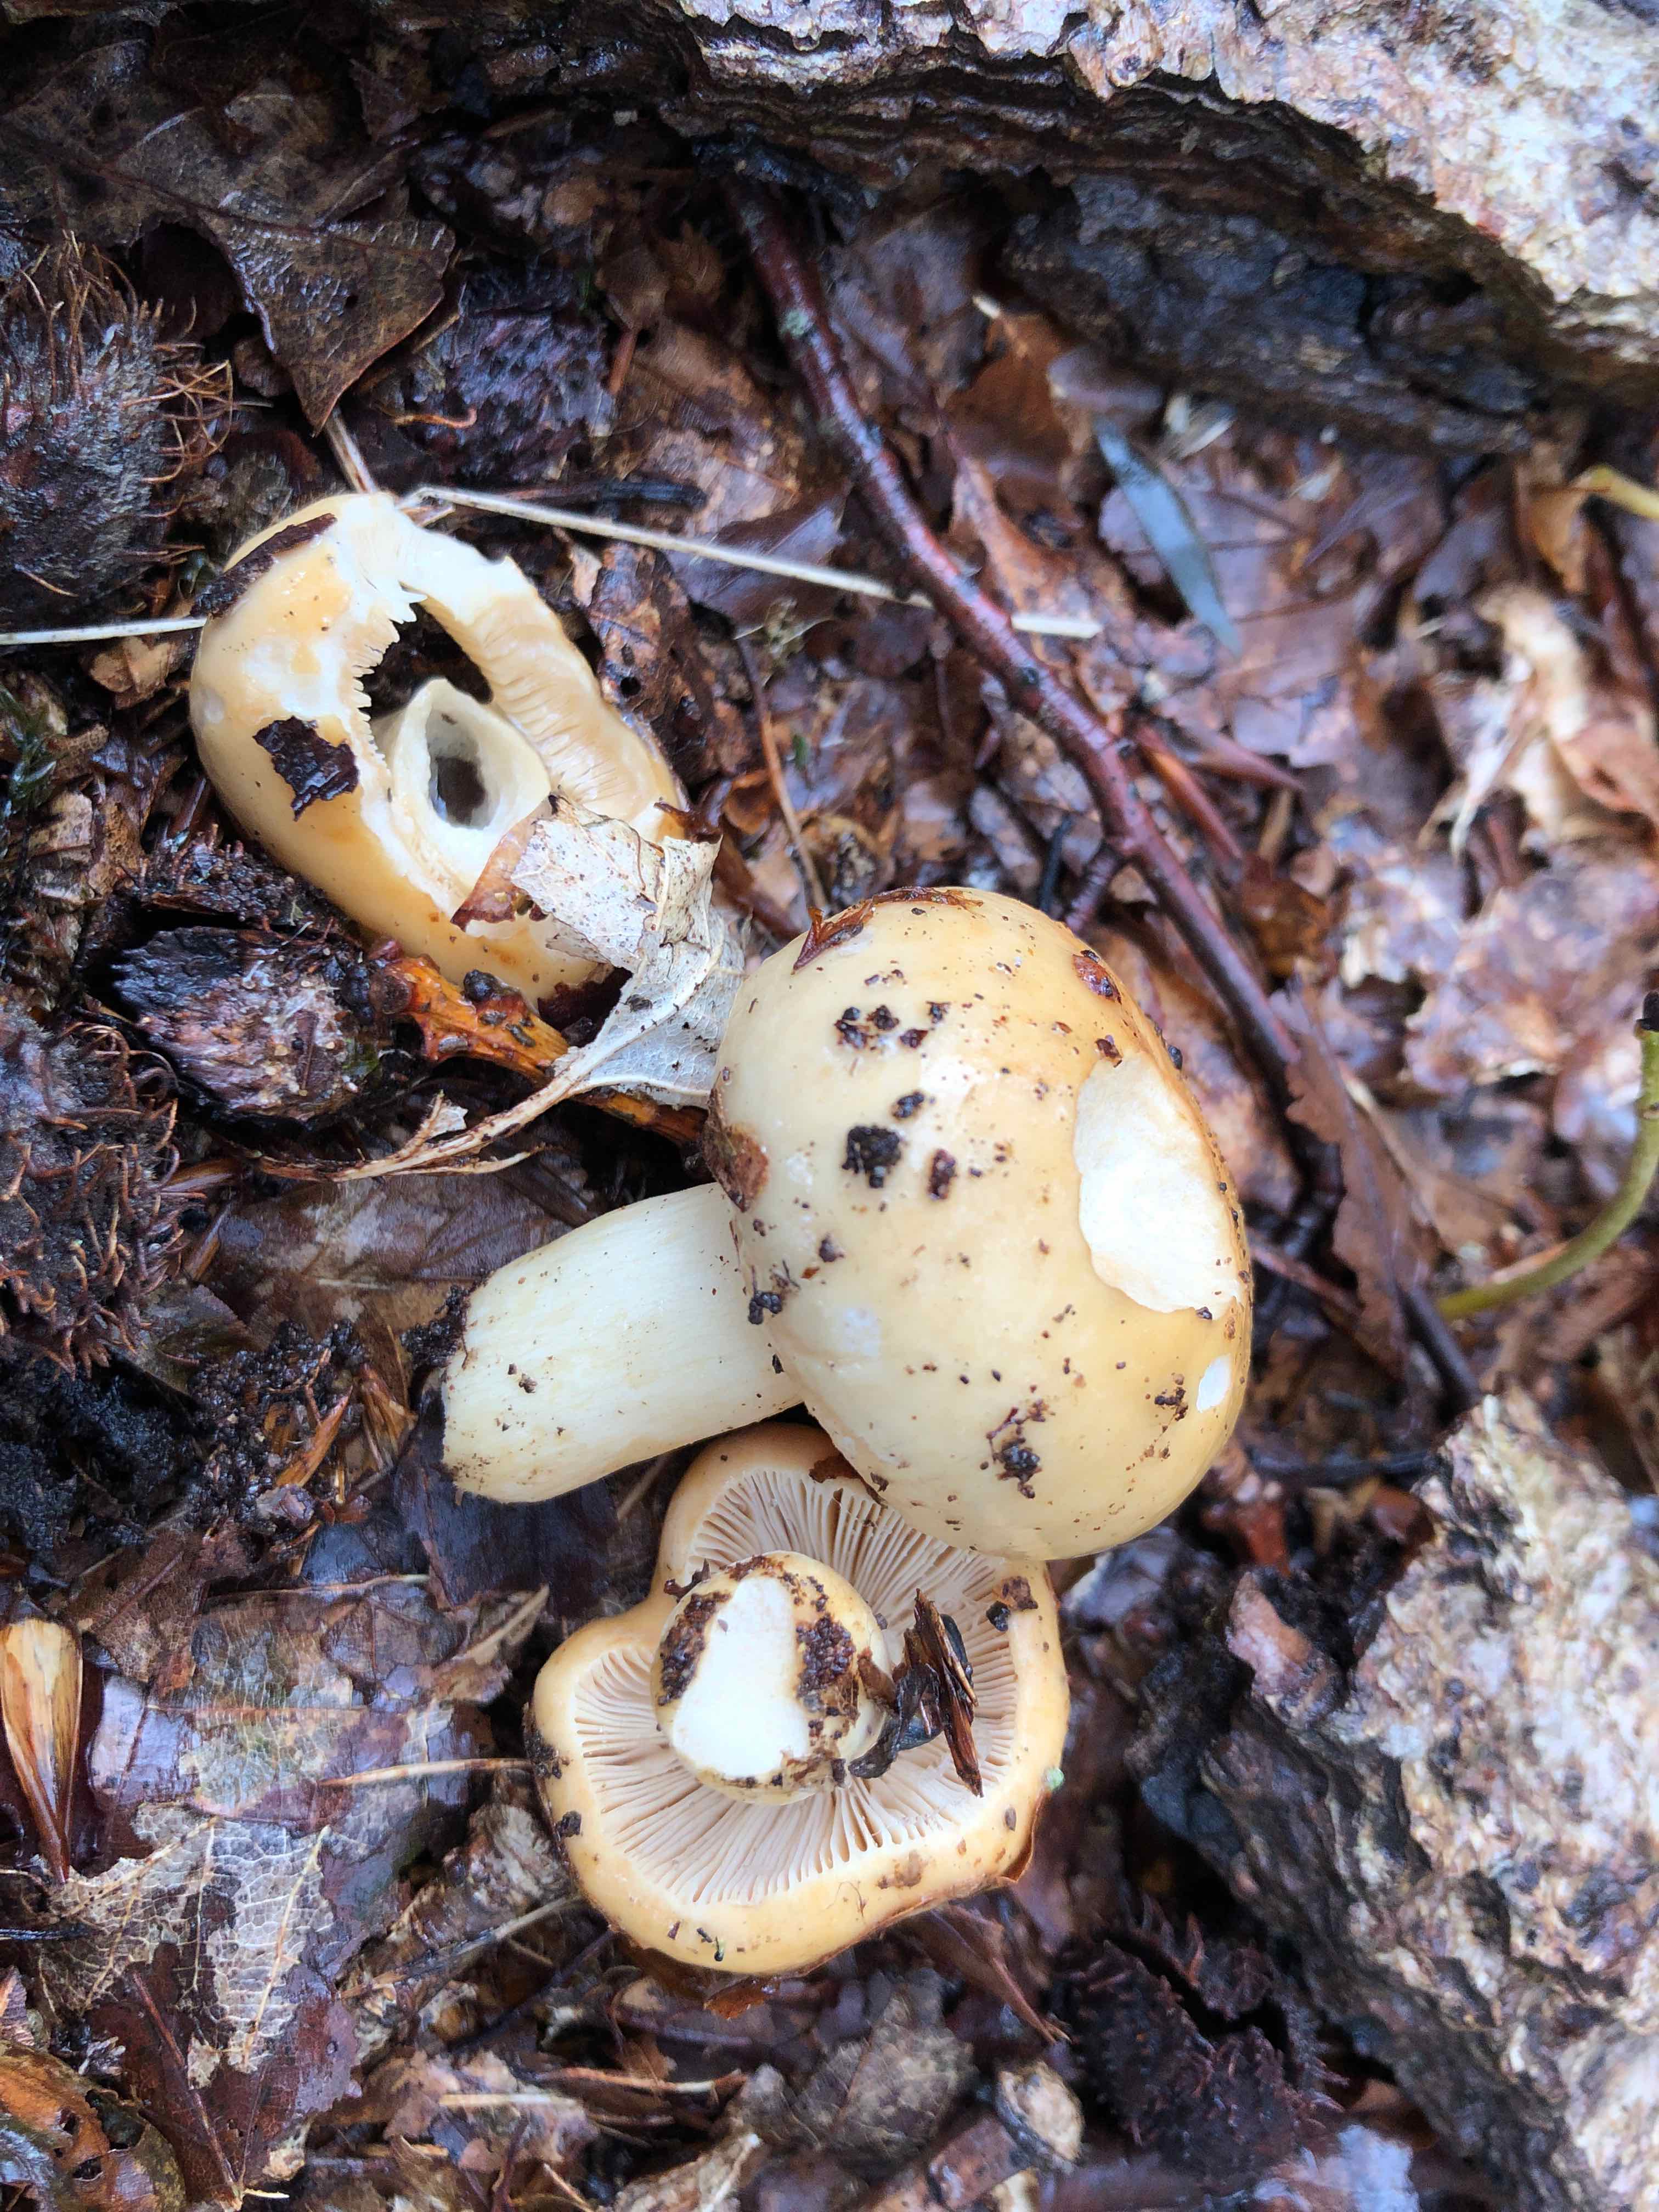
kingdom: Fungi
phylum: Basidiomycota
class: Agaricomycetes
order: Russulales
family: Russulaceae
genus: Russula
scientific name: Russula fellea
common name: galde-skørhat
